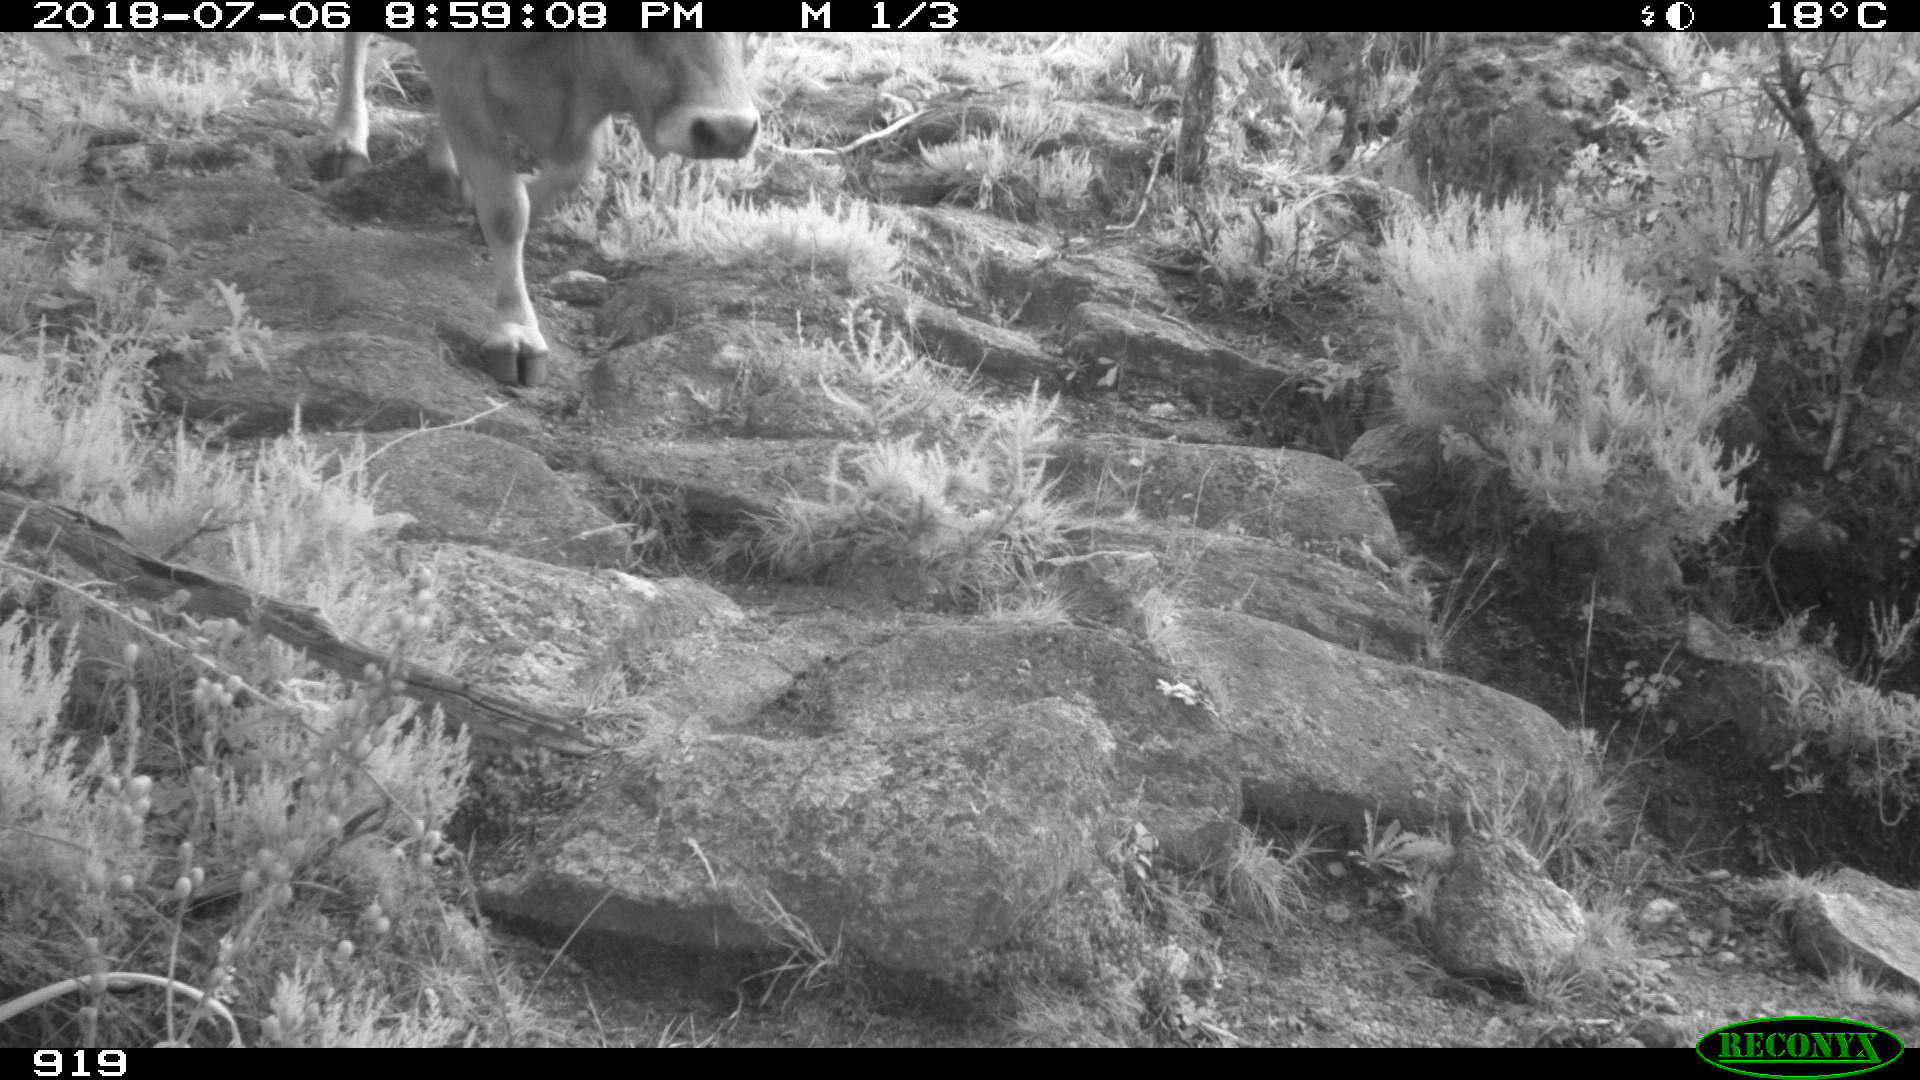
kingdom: Animalia
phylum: Chordata
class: Mammalia
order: Artiodactyla
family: Bovidae
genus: Bos
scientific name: Bos taurus
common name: Domesticated cattle
